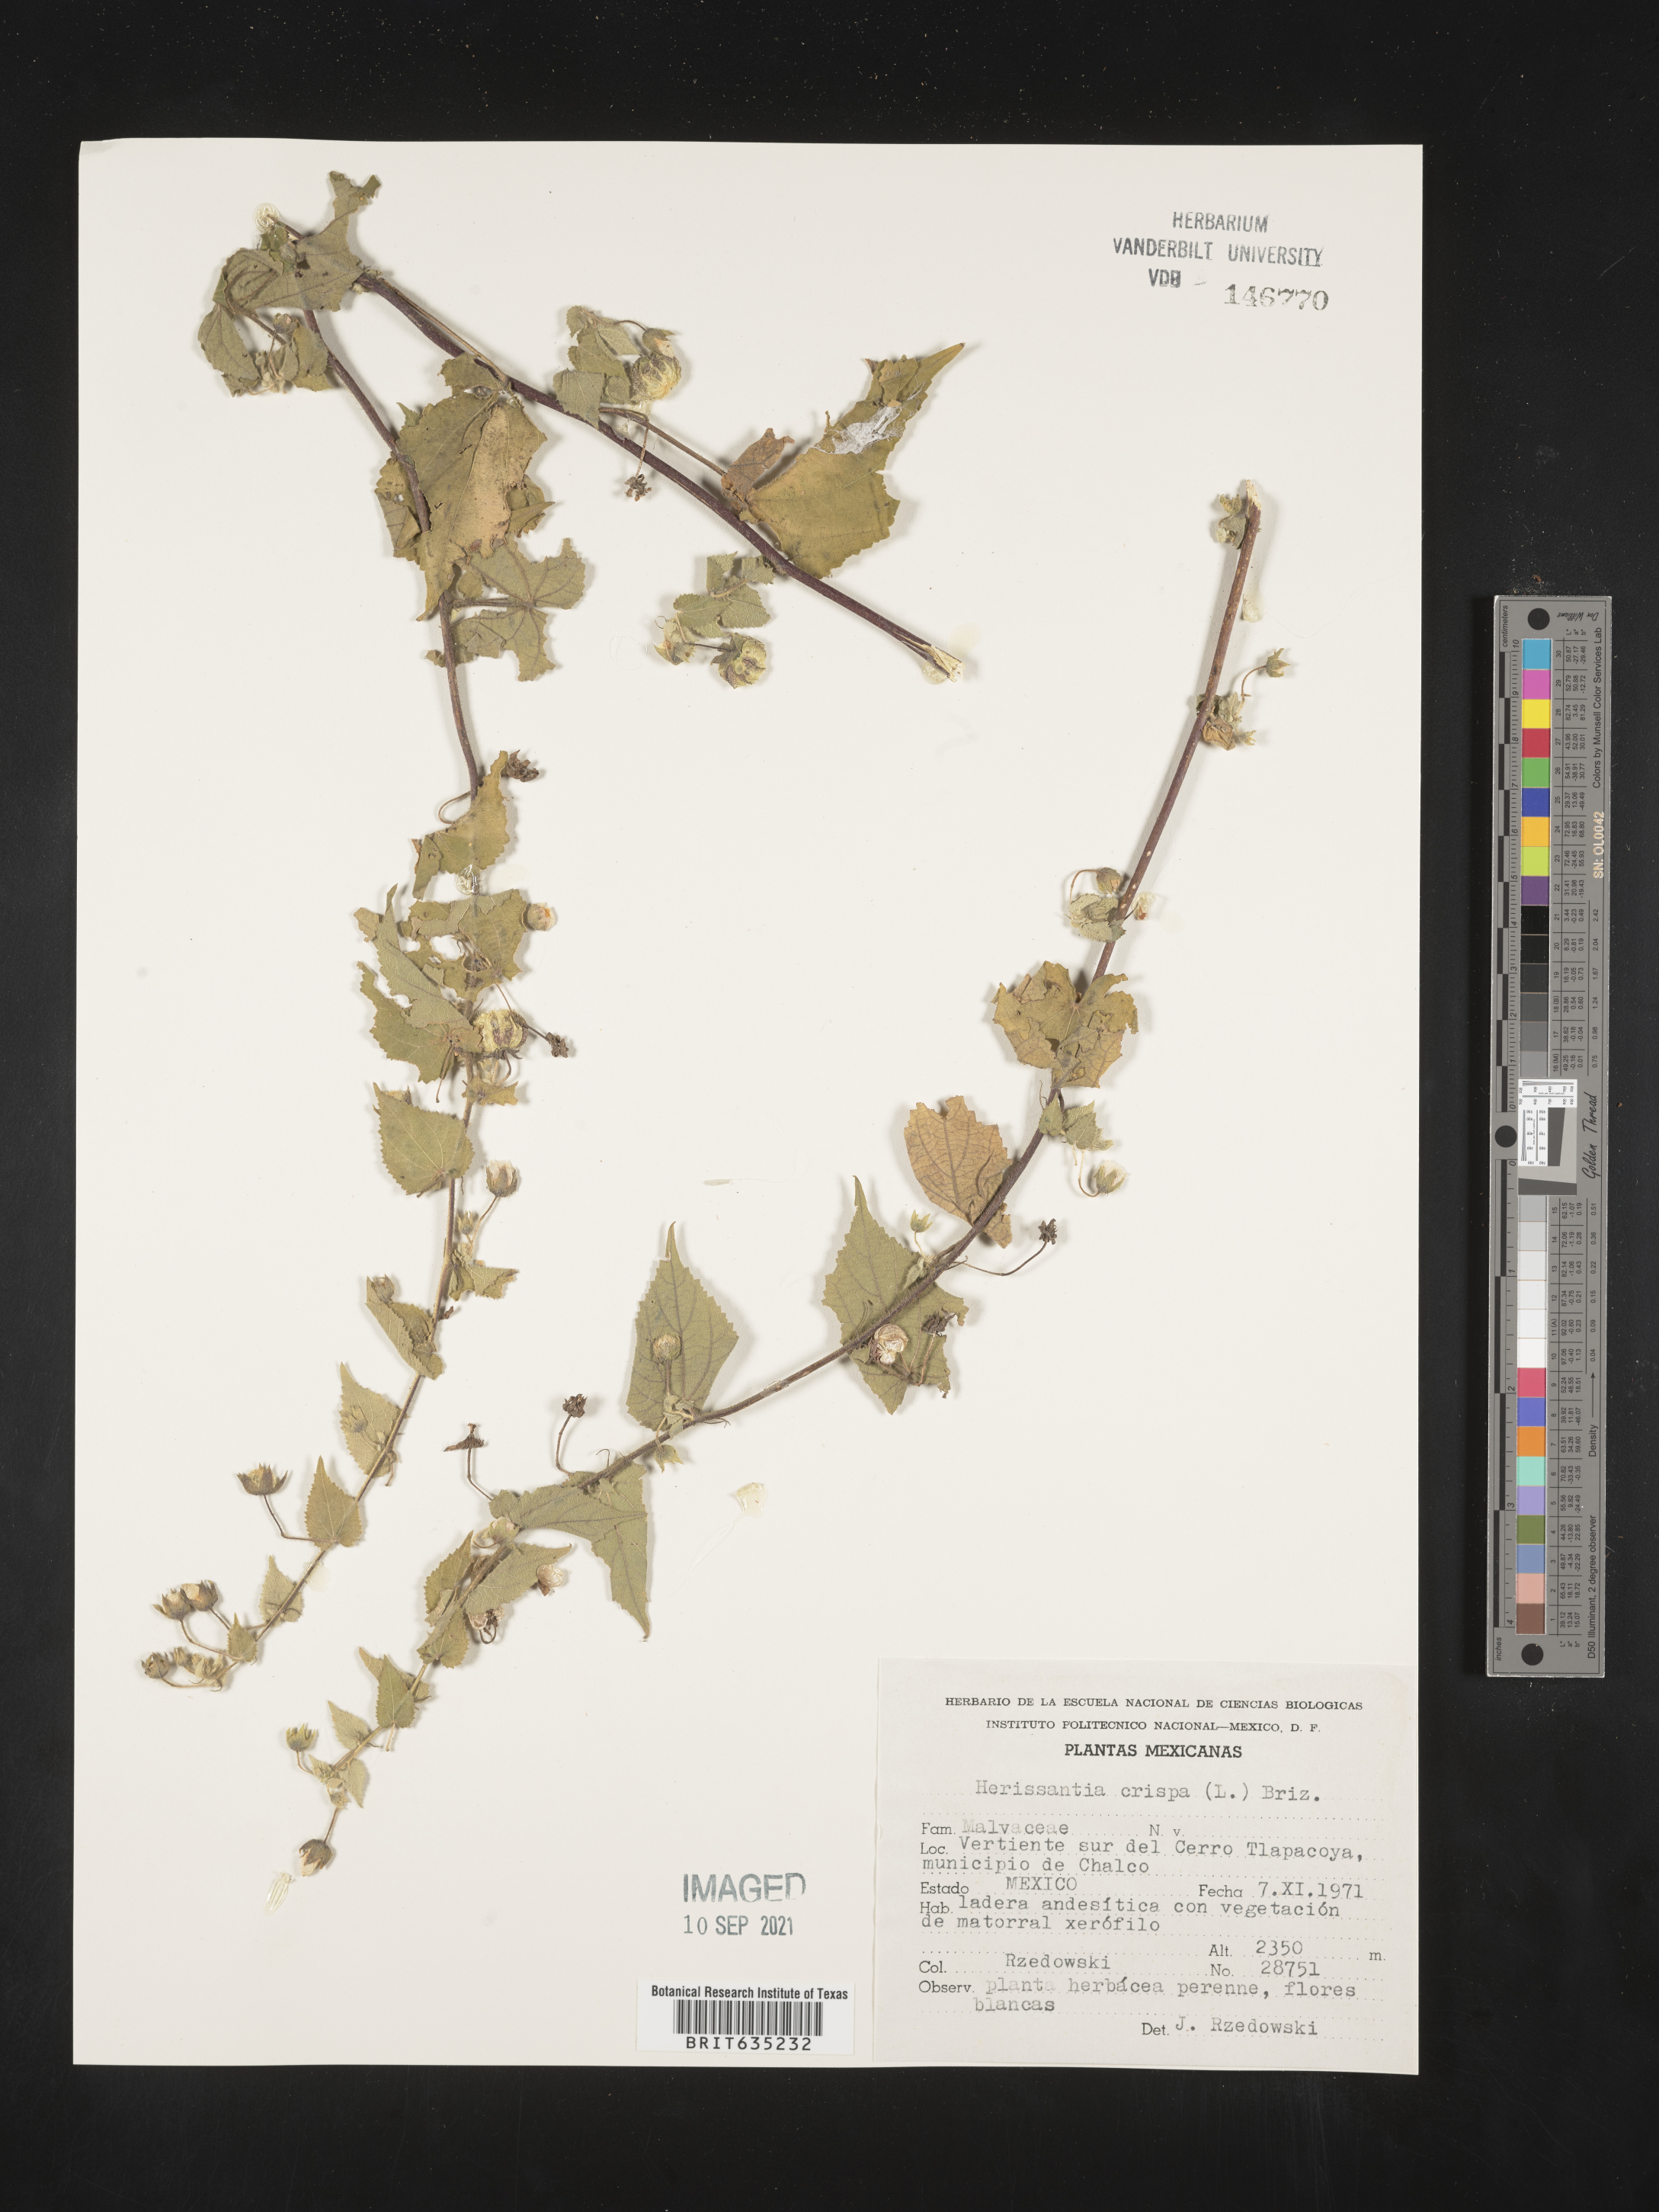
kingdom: Plantae
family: Gayoides
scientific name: Gayoides
